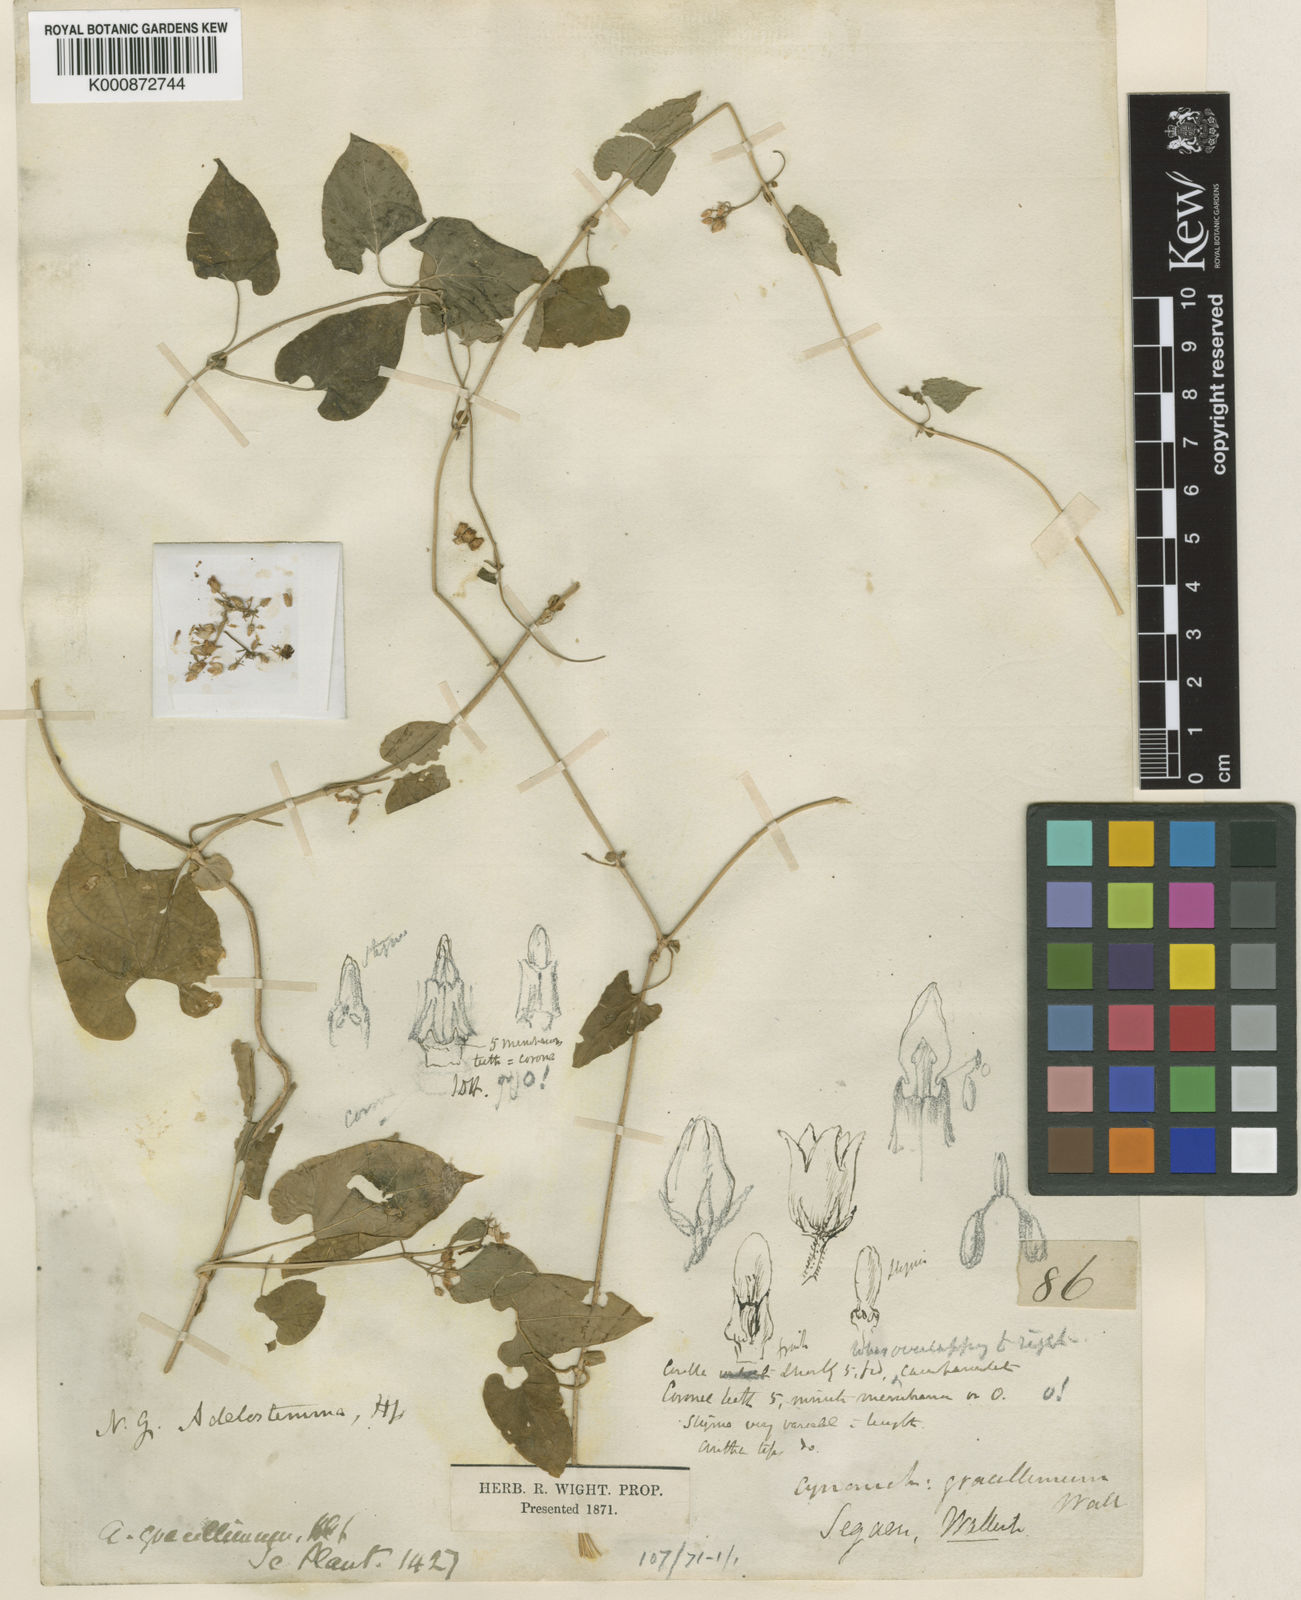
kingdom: Plantae
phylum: Tracheophyta
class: Magnoliopsida
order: Gentianales
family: Apocynaceae
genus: Cynanchum
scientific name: Cynanchum gracillimum
